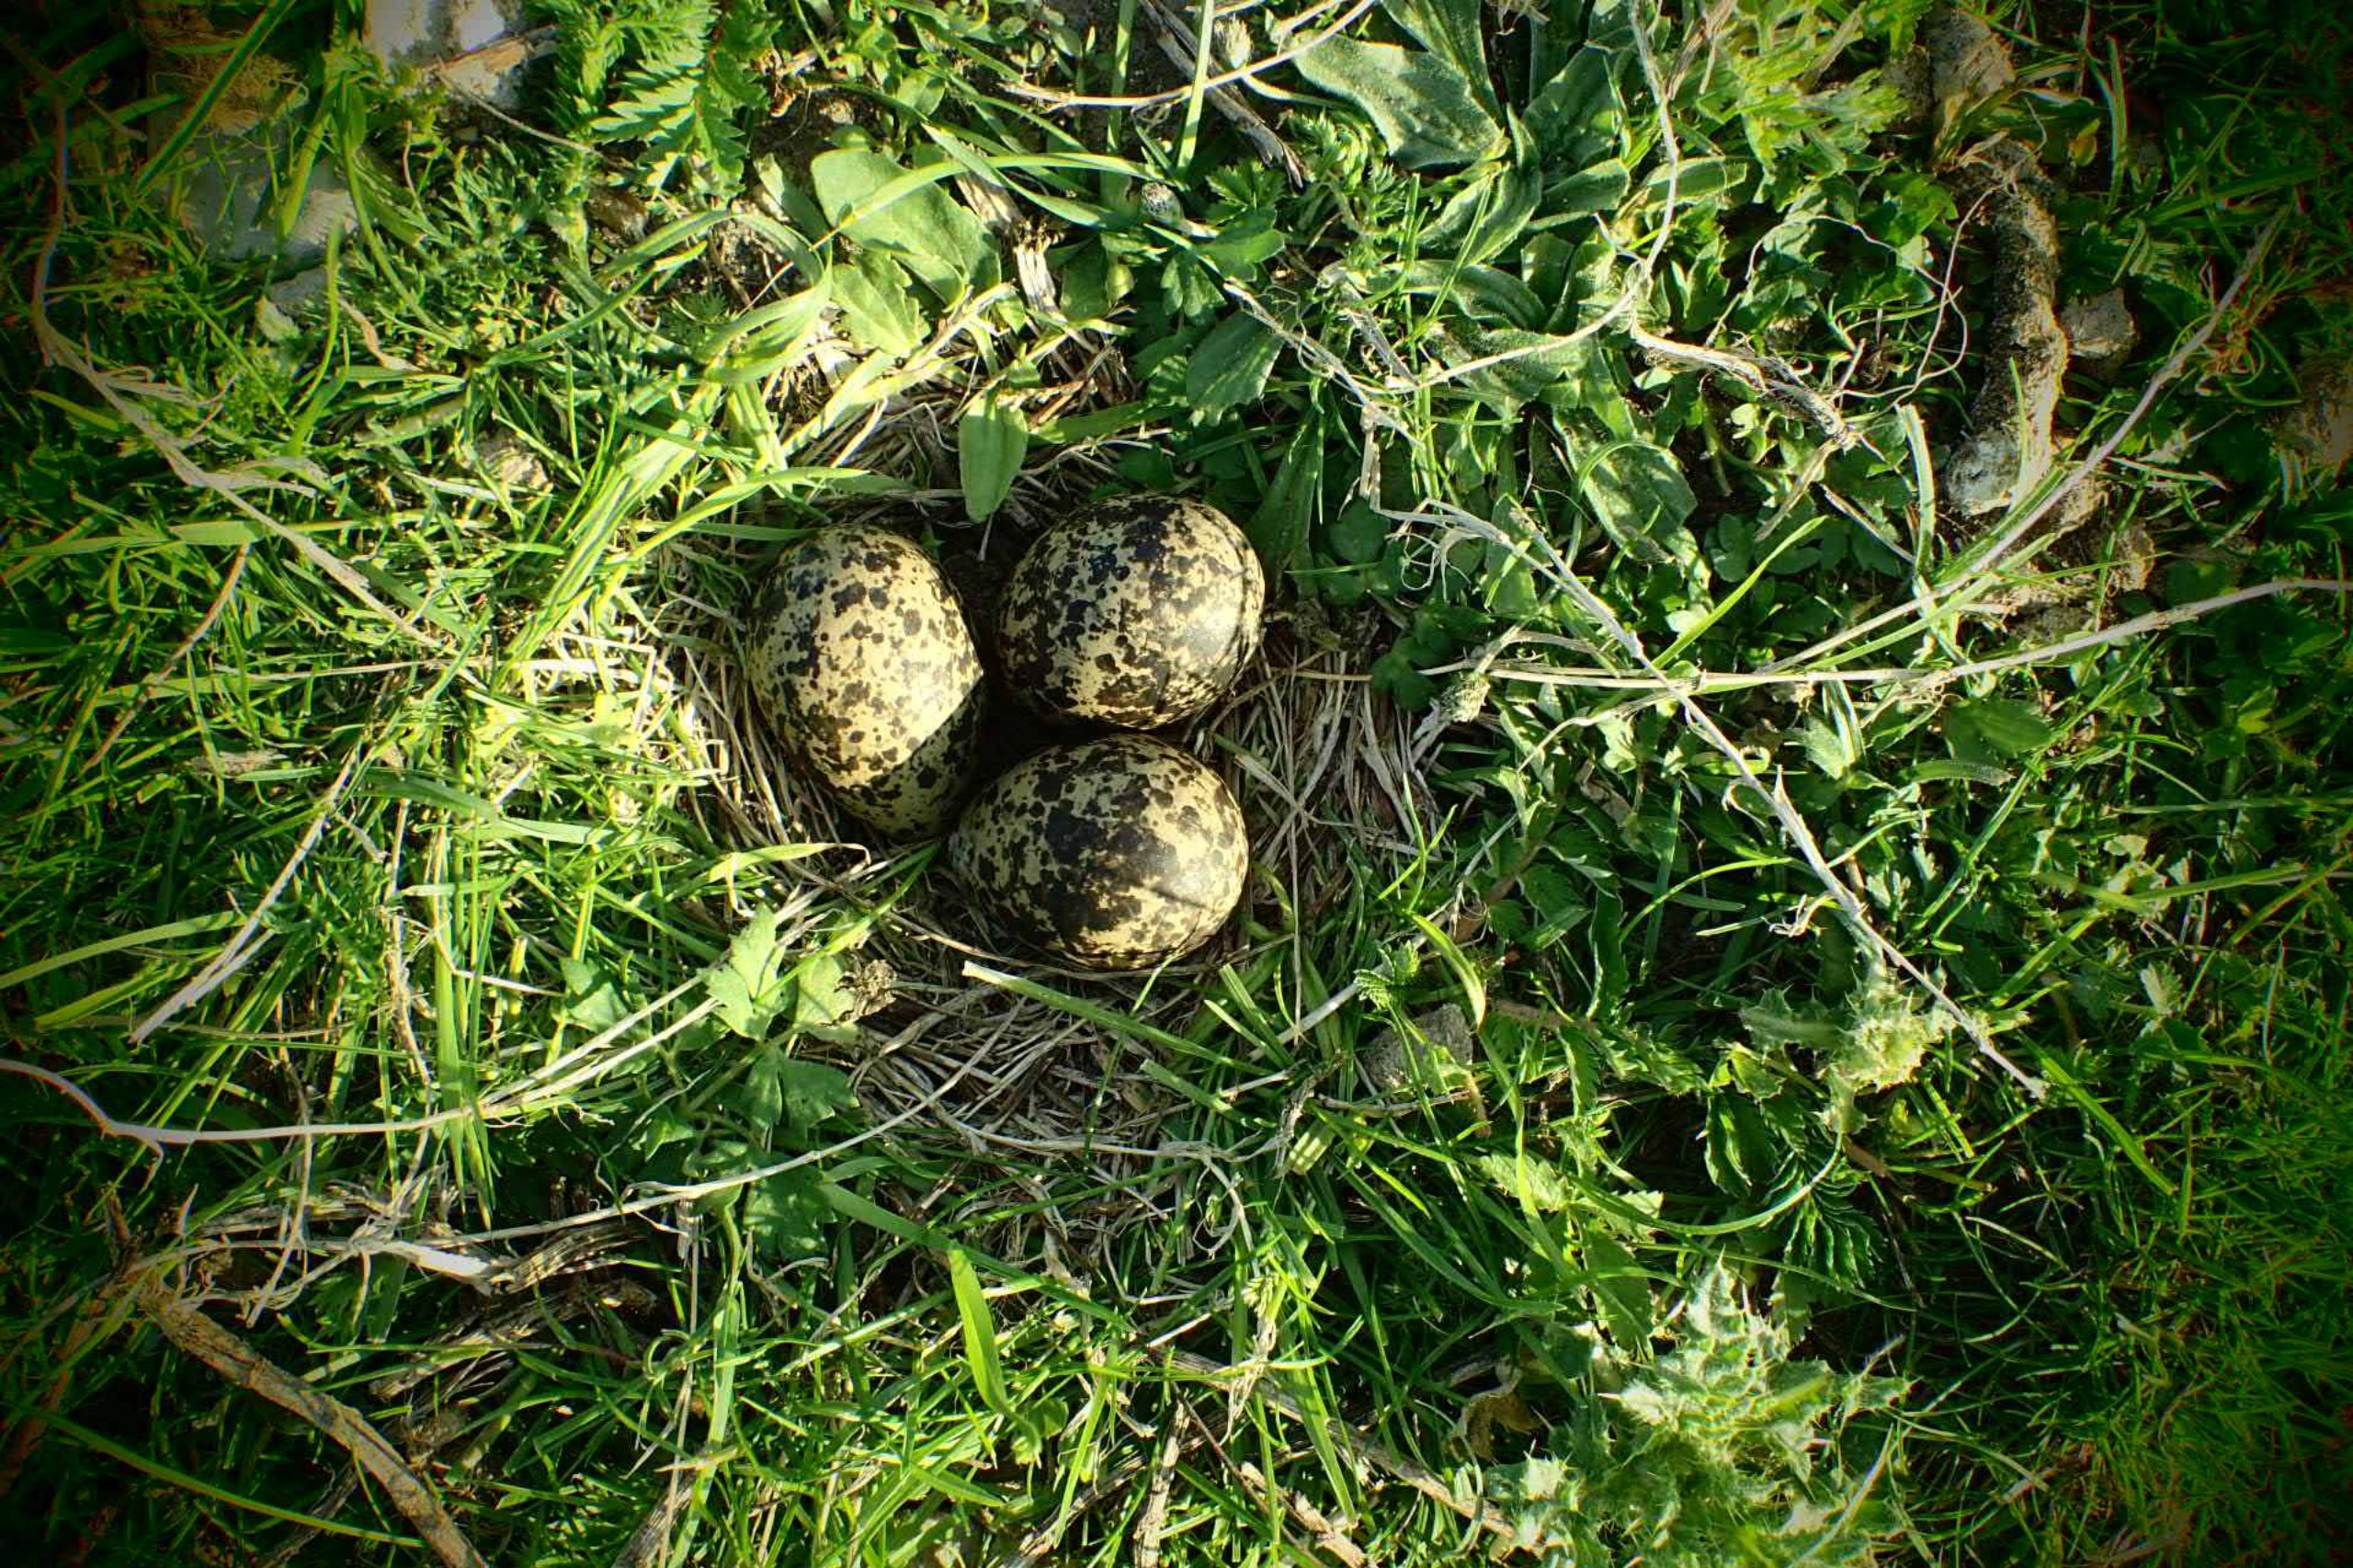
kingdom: Animalia
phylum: Chordata
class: Aves
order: Charadriiformes
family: Haematopodidae
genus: Haematopus
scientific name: Haematopus ostralegus
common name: Strandskade
